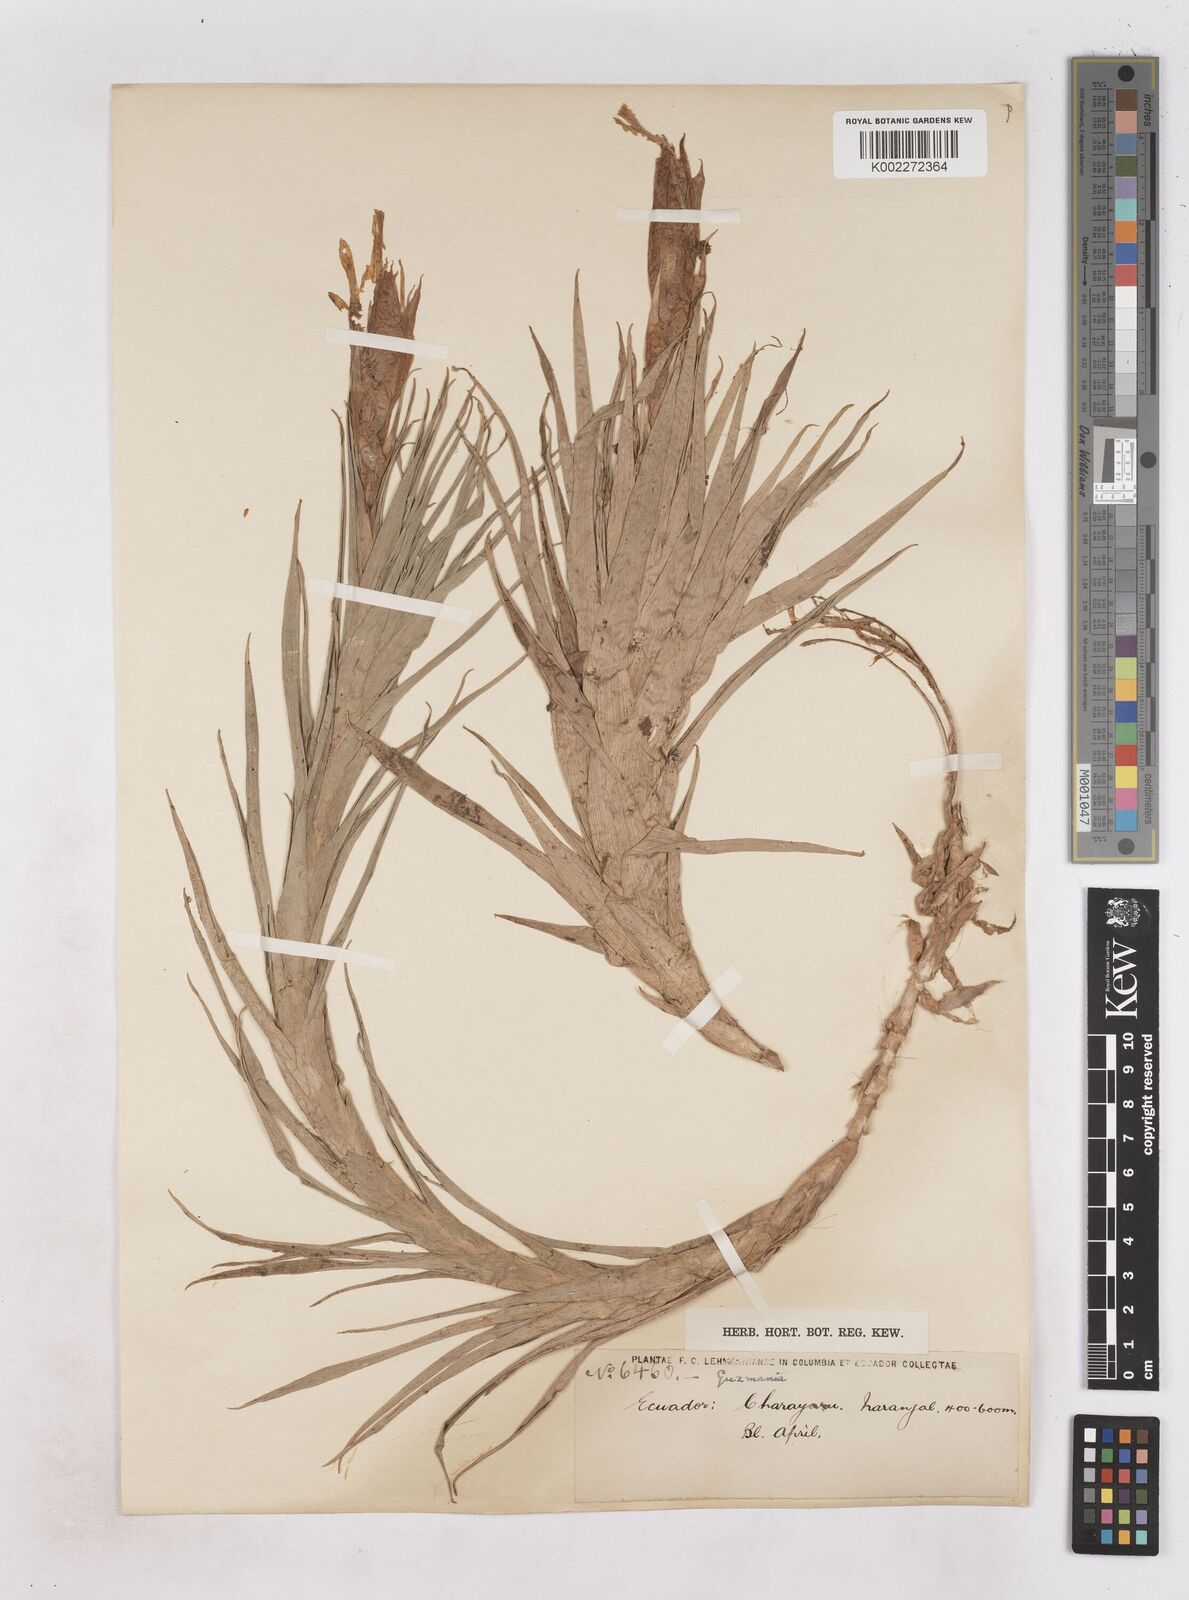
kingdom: Plantae
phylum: Tracheophyta
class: Liliopsida
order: Poales
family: Bromeliaceae
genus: Guzmania
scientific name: Guzmania angustifolia
